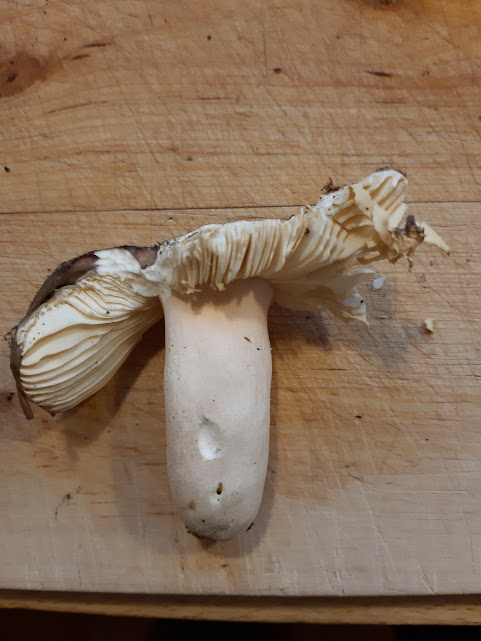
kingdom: Fungi
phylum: Basidiomycota
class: Agaricomycetes
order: Russulales
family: Russulaceae
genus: Russula
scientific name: Russula olivacea
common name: stor skørhat
